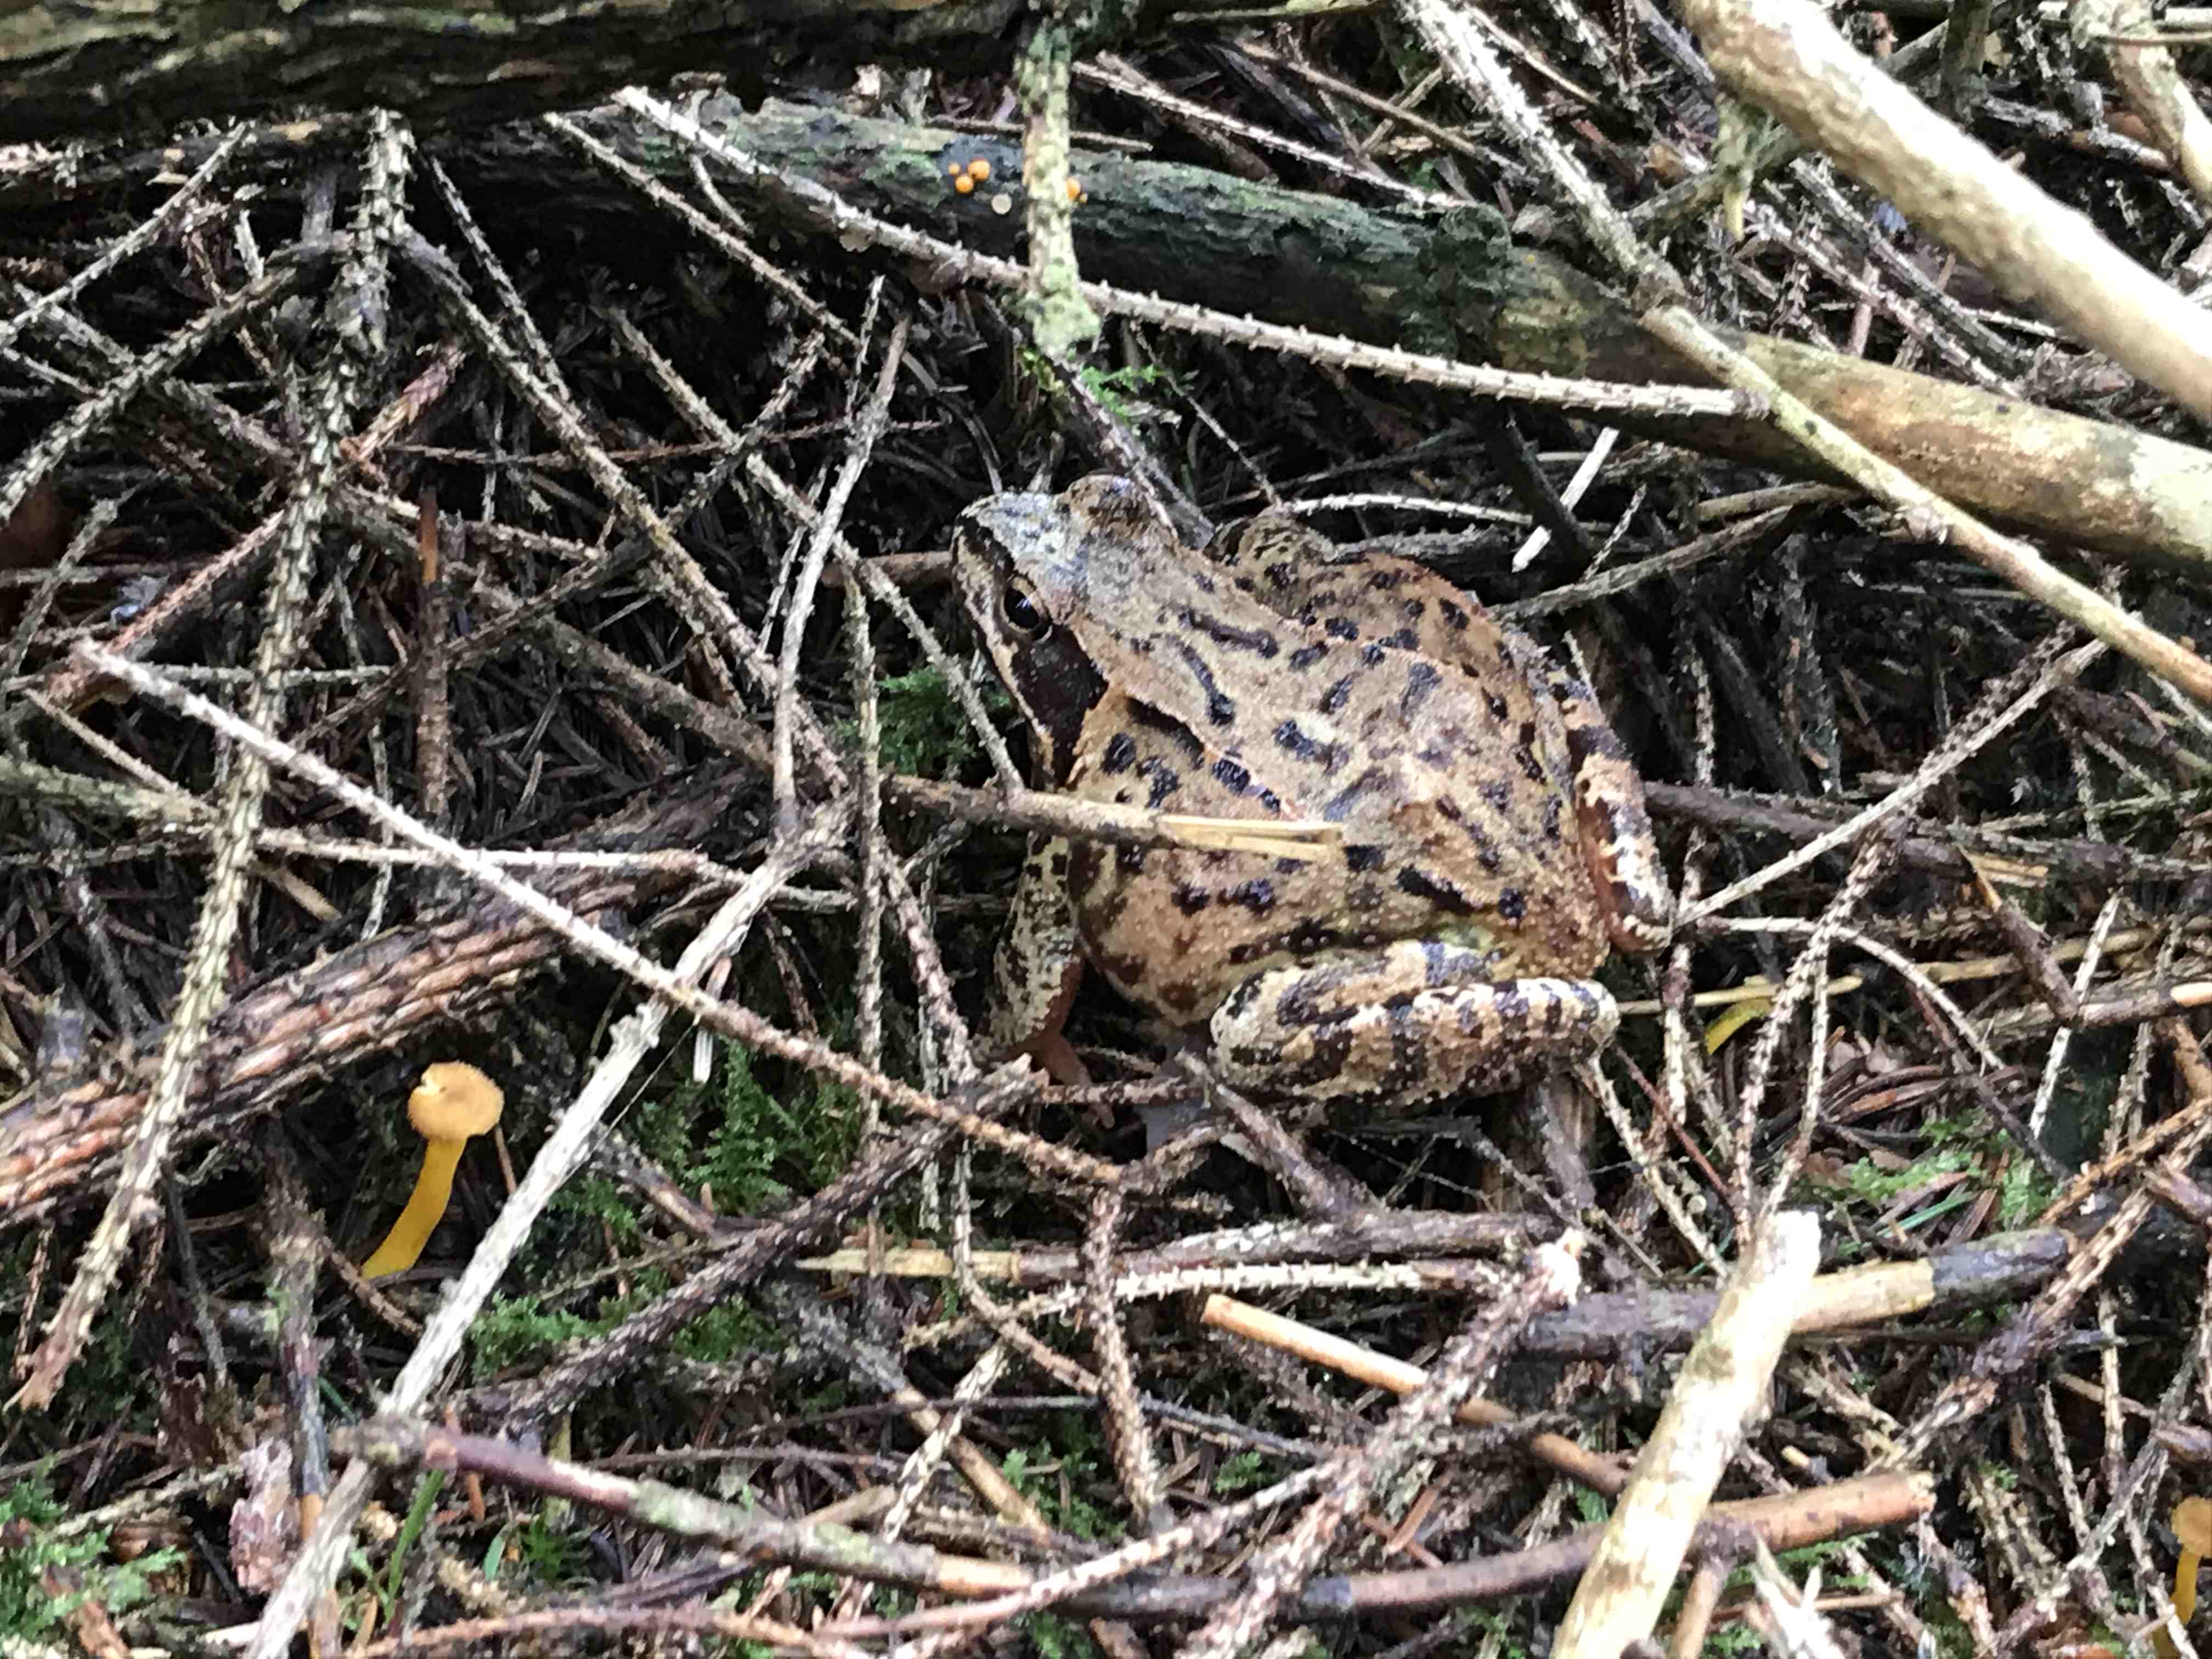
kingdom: Fungi
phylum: Basidiomycota
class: Agaricomycetes
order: Cantharellales
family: Hydnaceae
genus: Craterellus
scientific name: Craterellus tubaeformis
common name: tragt-kantarel
